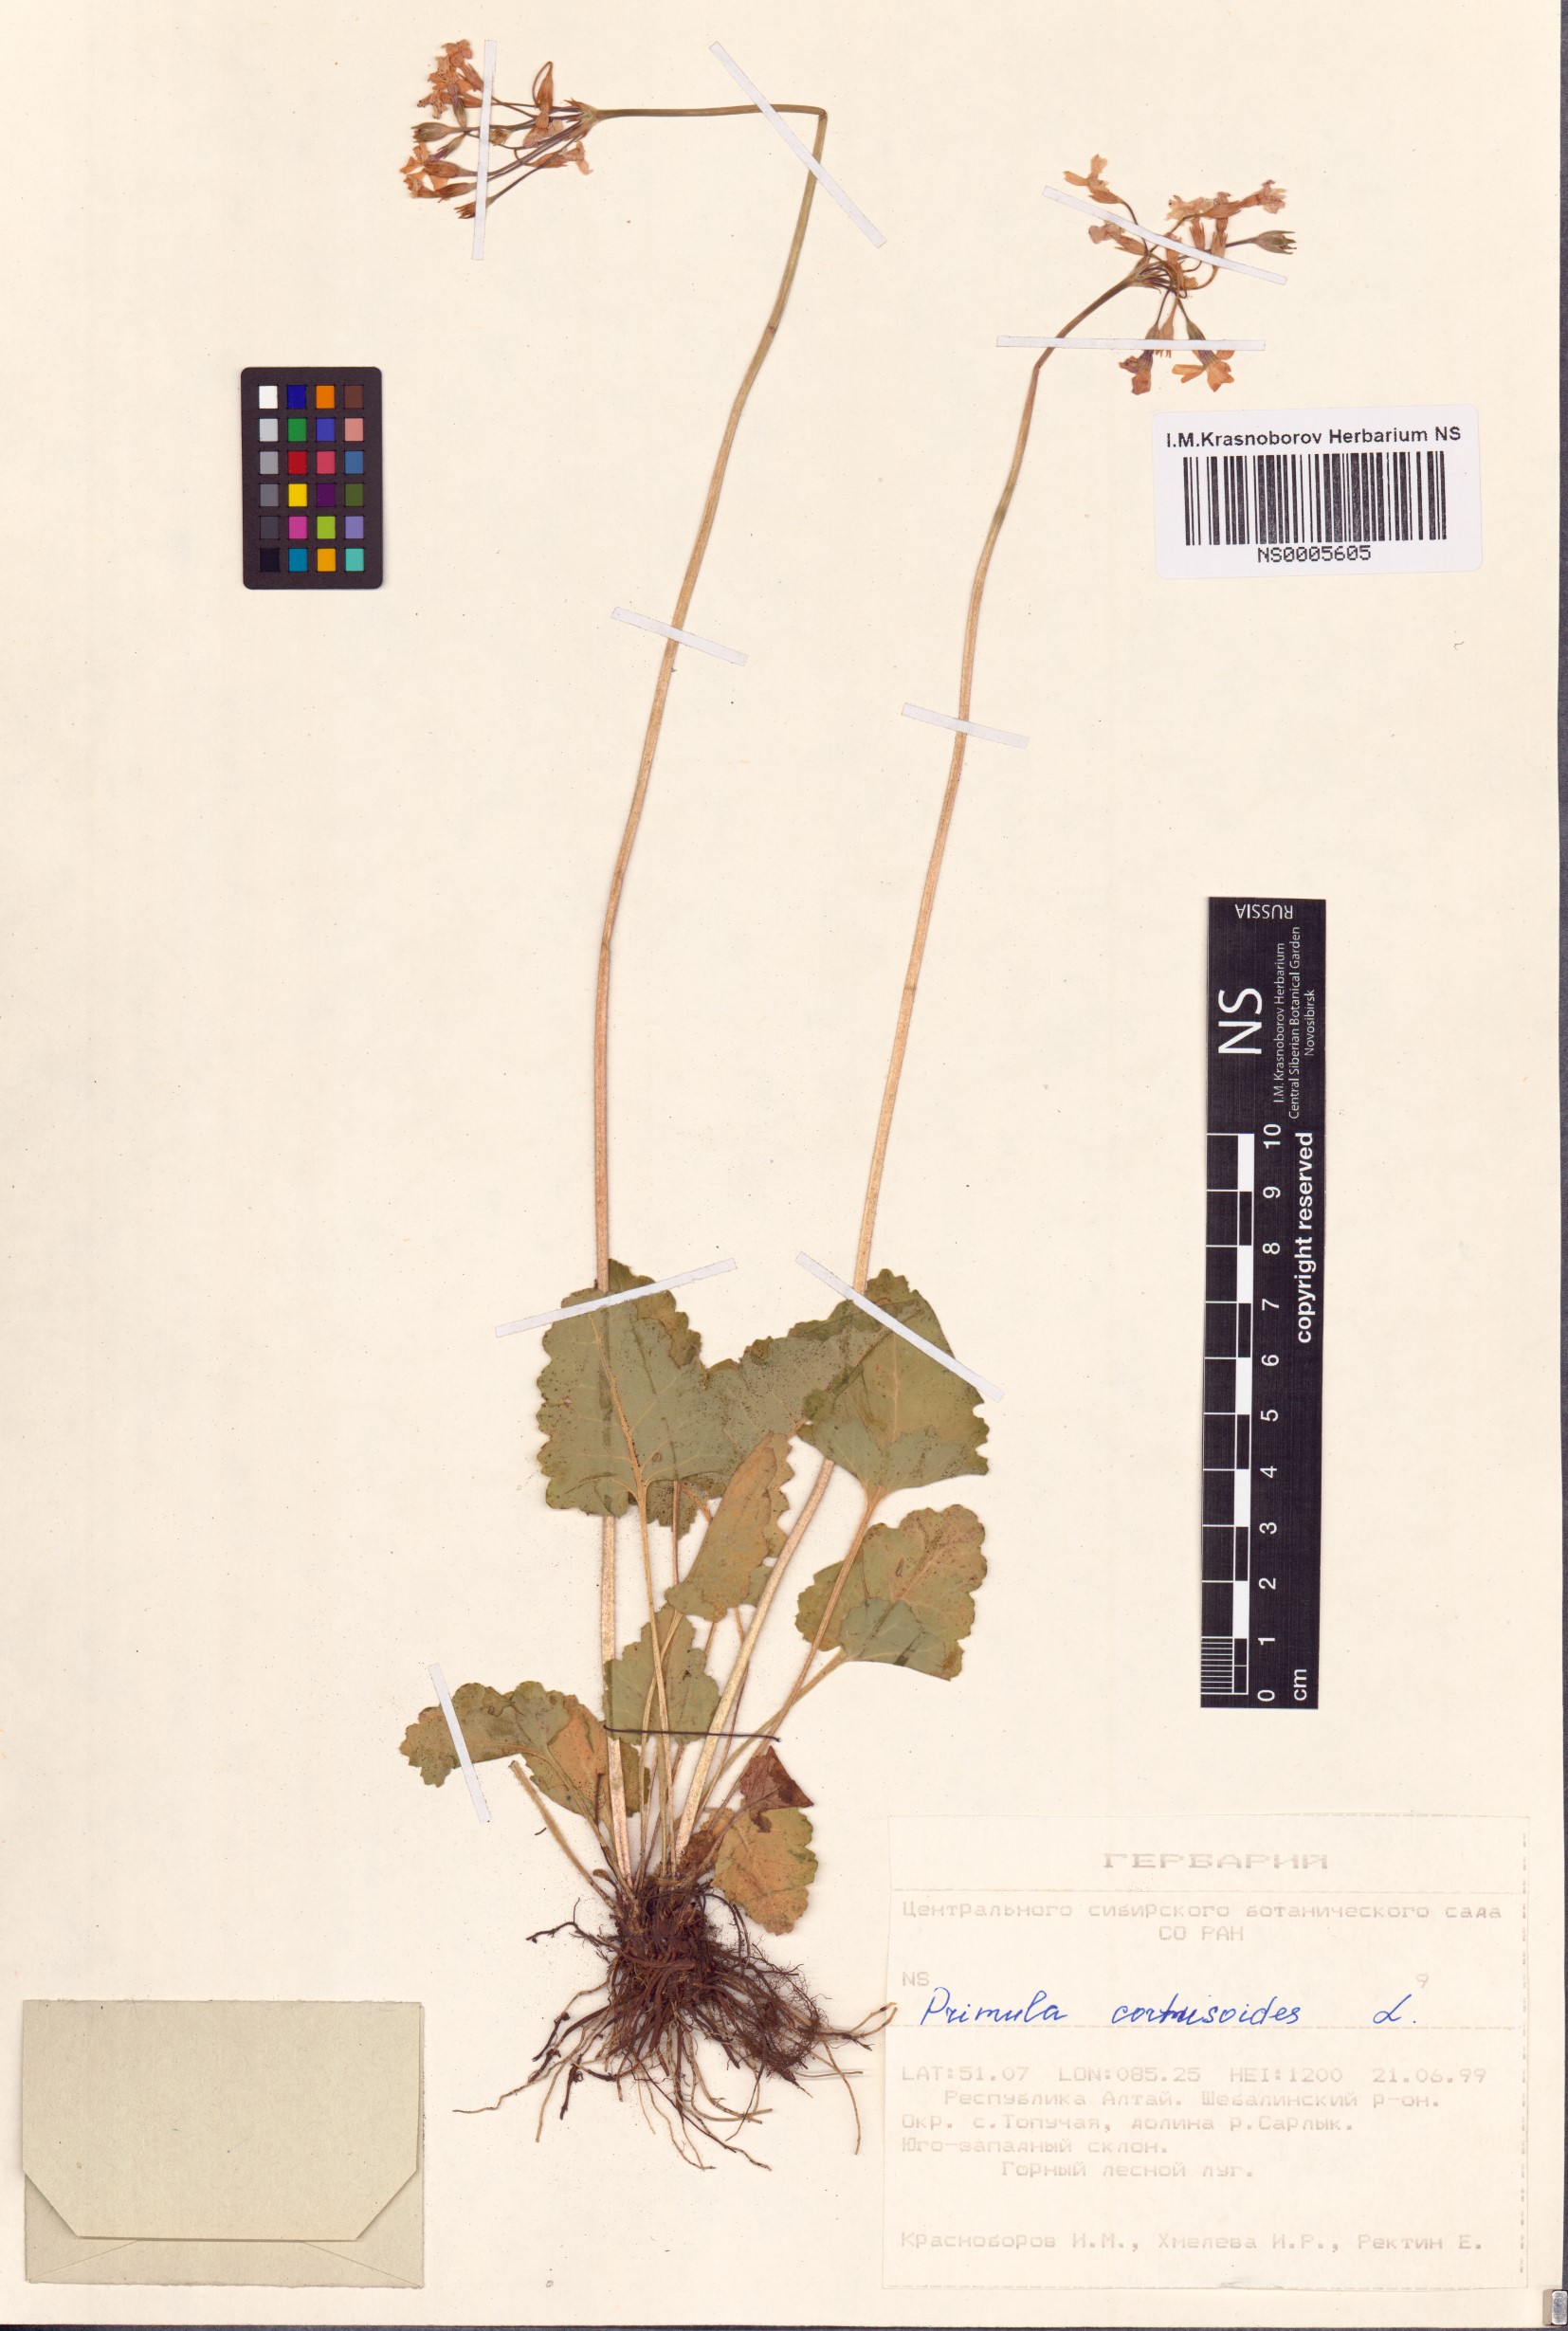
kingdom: Plantae
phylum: Tracheophyta
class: Magnoliopsida
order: Ericales
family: Primulaceae
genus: Primula
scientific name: Primula cortusoides
